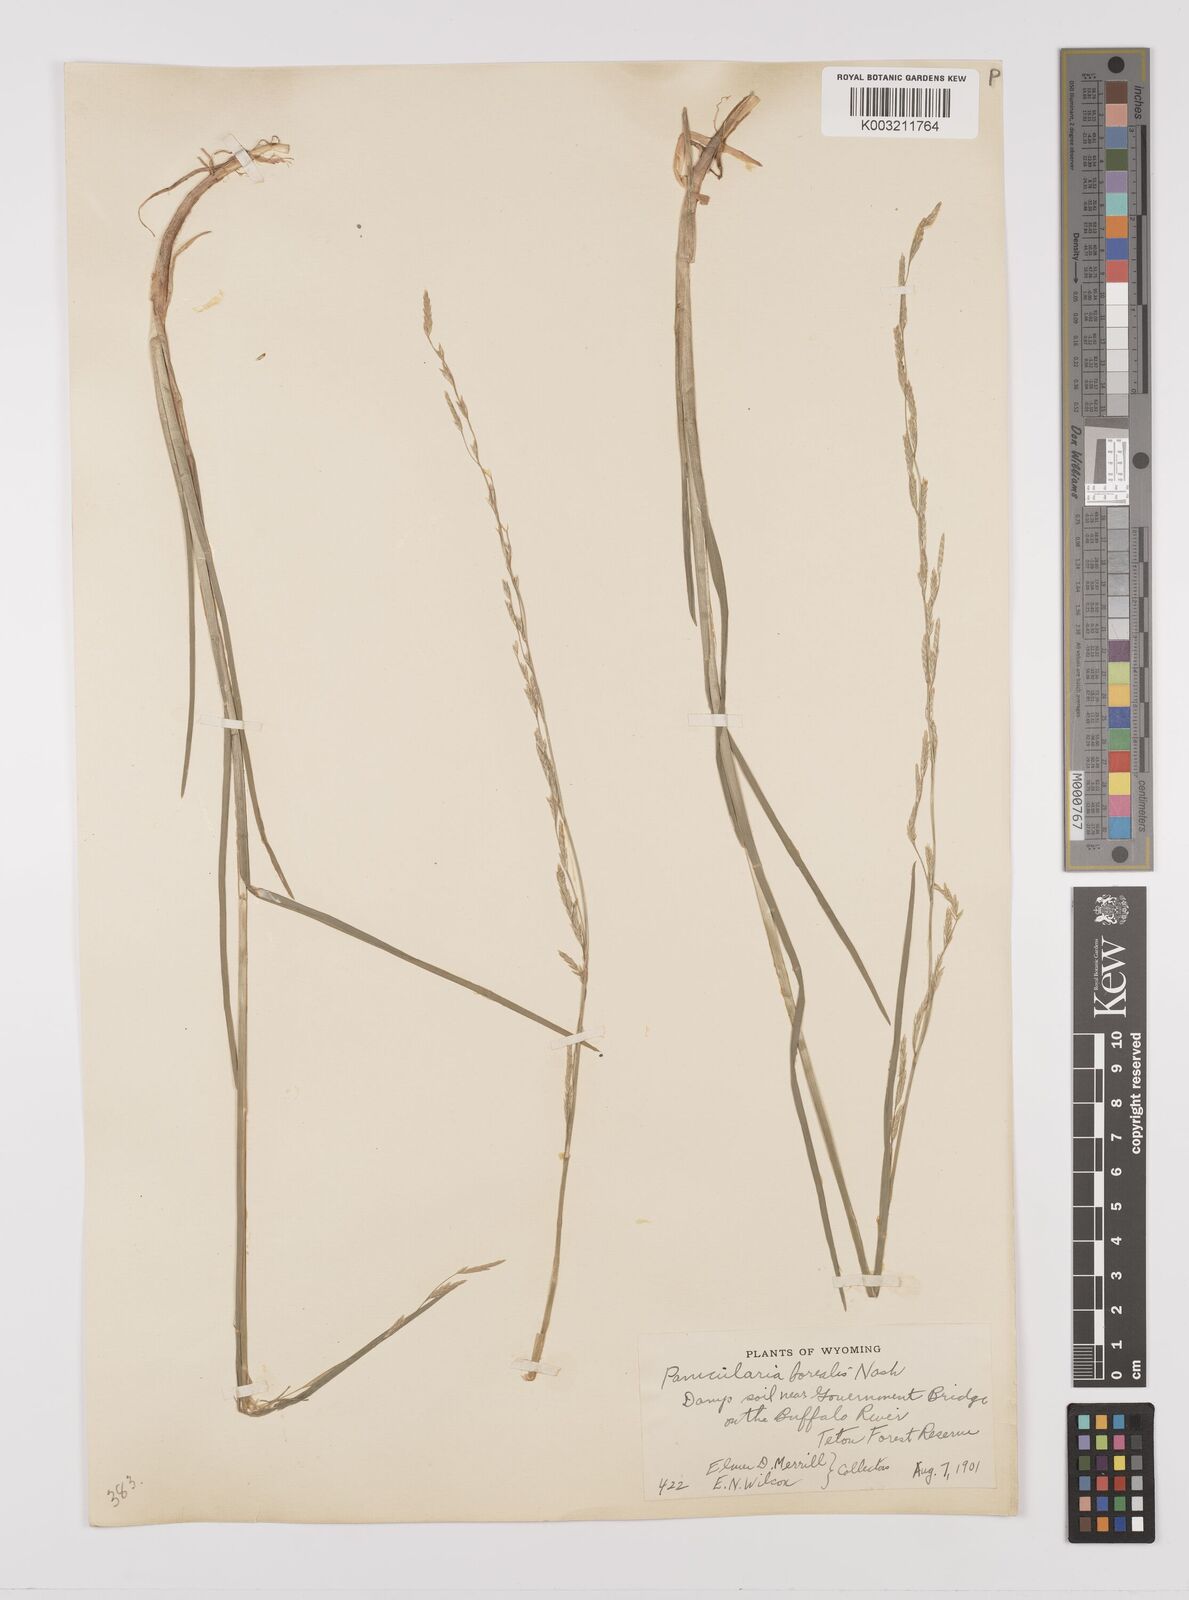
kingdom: Plantae
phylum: Tracheophyta
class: Liliopsida
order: Poales
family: Poaceae
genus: Glyceria
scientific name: Glyceria borealis
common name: Boreal glyceria
